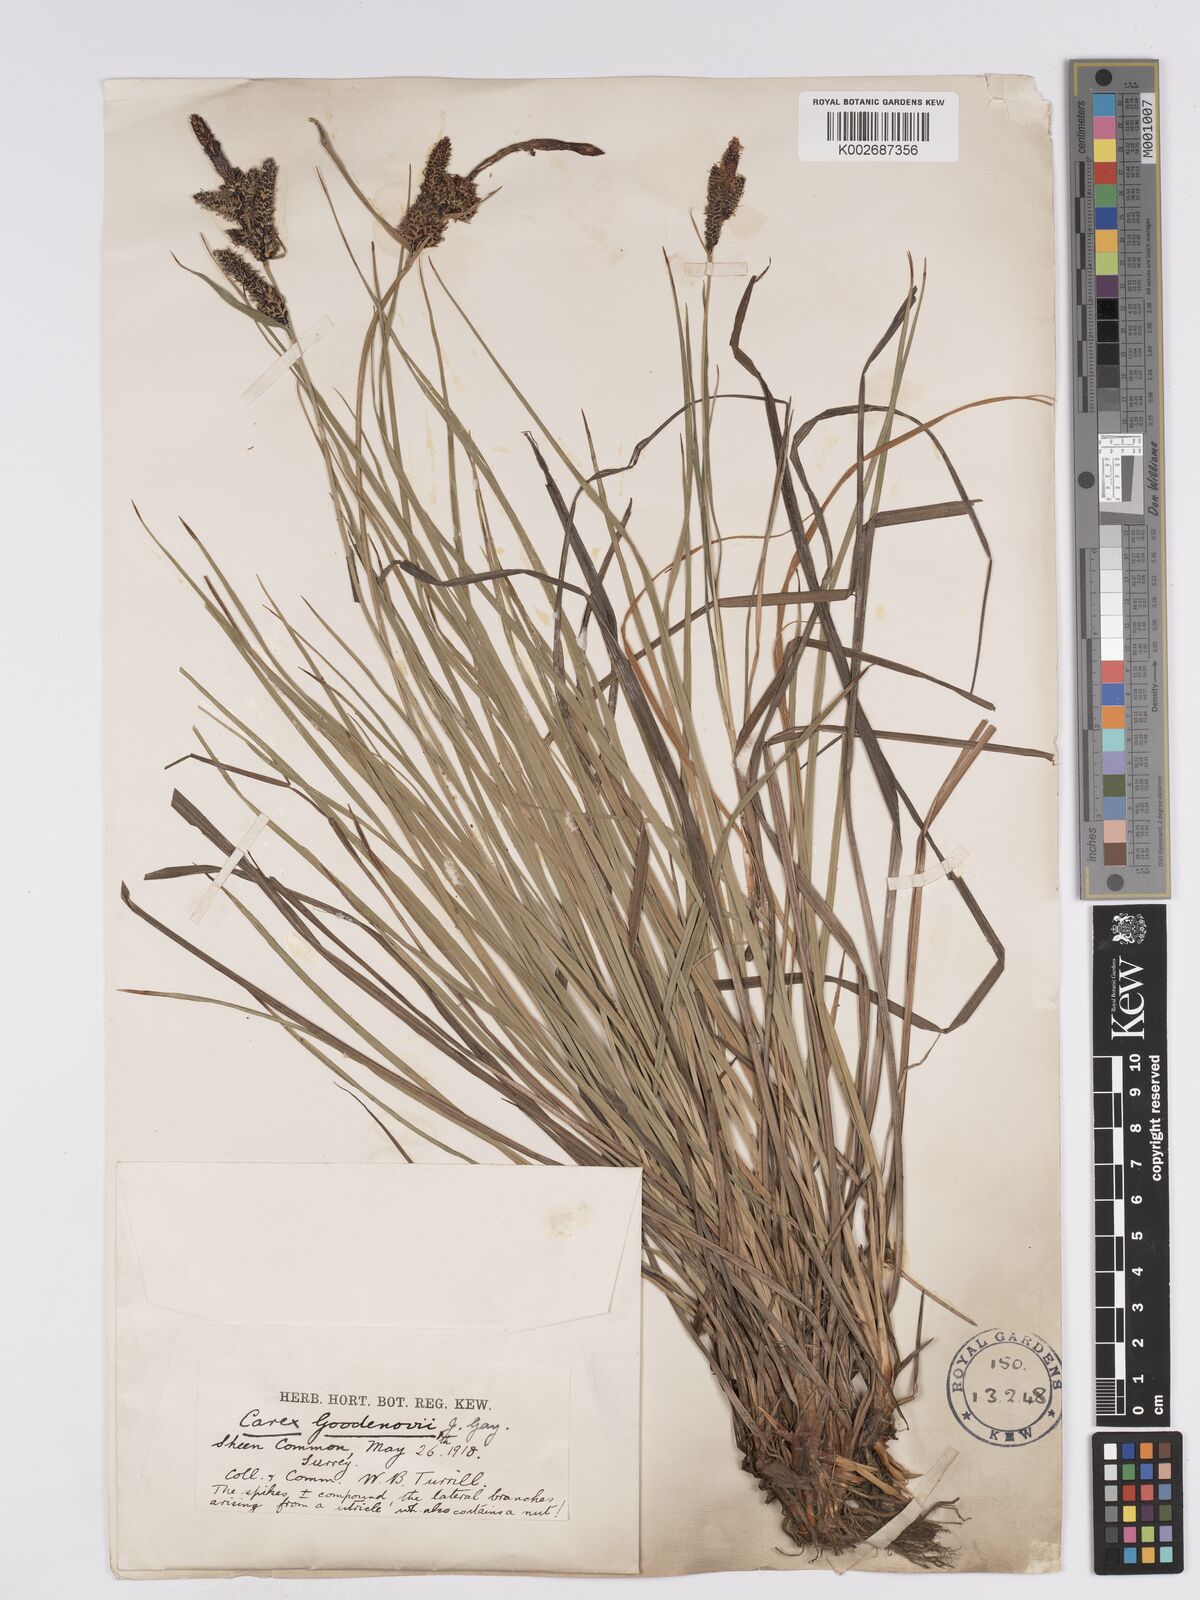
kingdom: Plantae
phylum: Tracheophyta
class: Liliopsida
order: Poales
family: Cyperaceae
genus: Carex
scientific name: Carex nigra
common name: Common sedge
